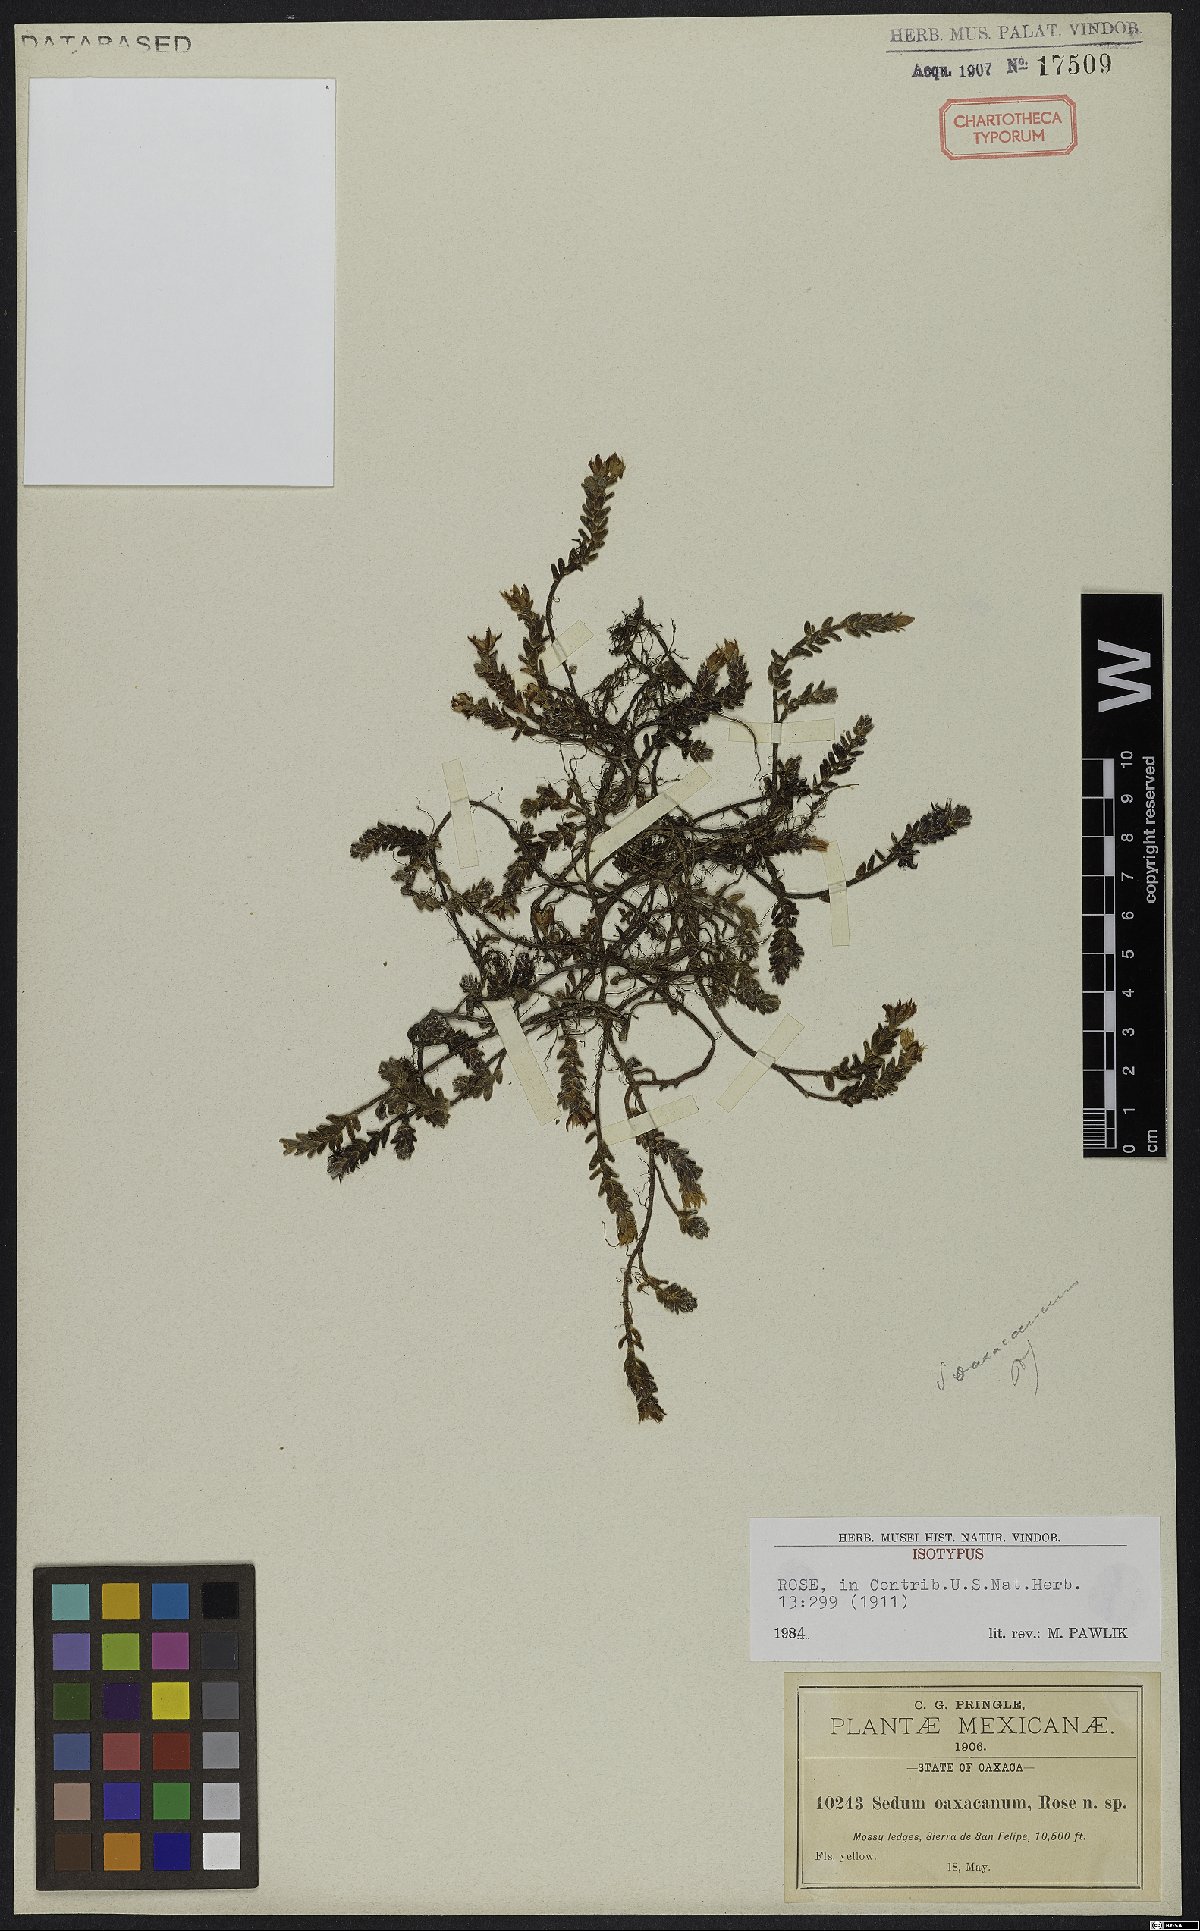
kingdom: Plantae
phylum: Tracheophyta
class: Magnoliopsida
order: Saxifragales
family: Crassulaceae
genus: Sedum
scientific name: Sedum oaxacanum
